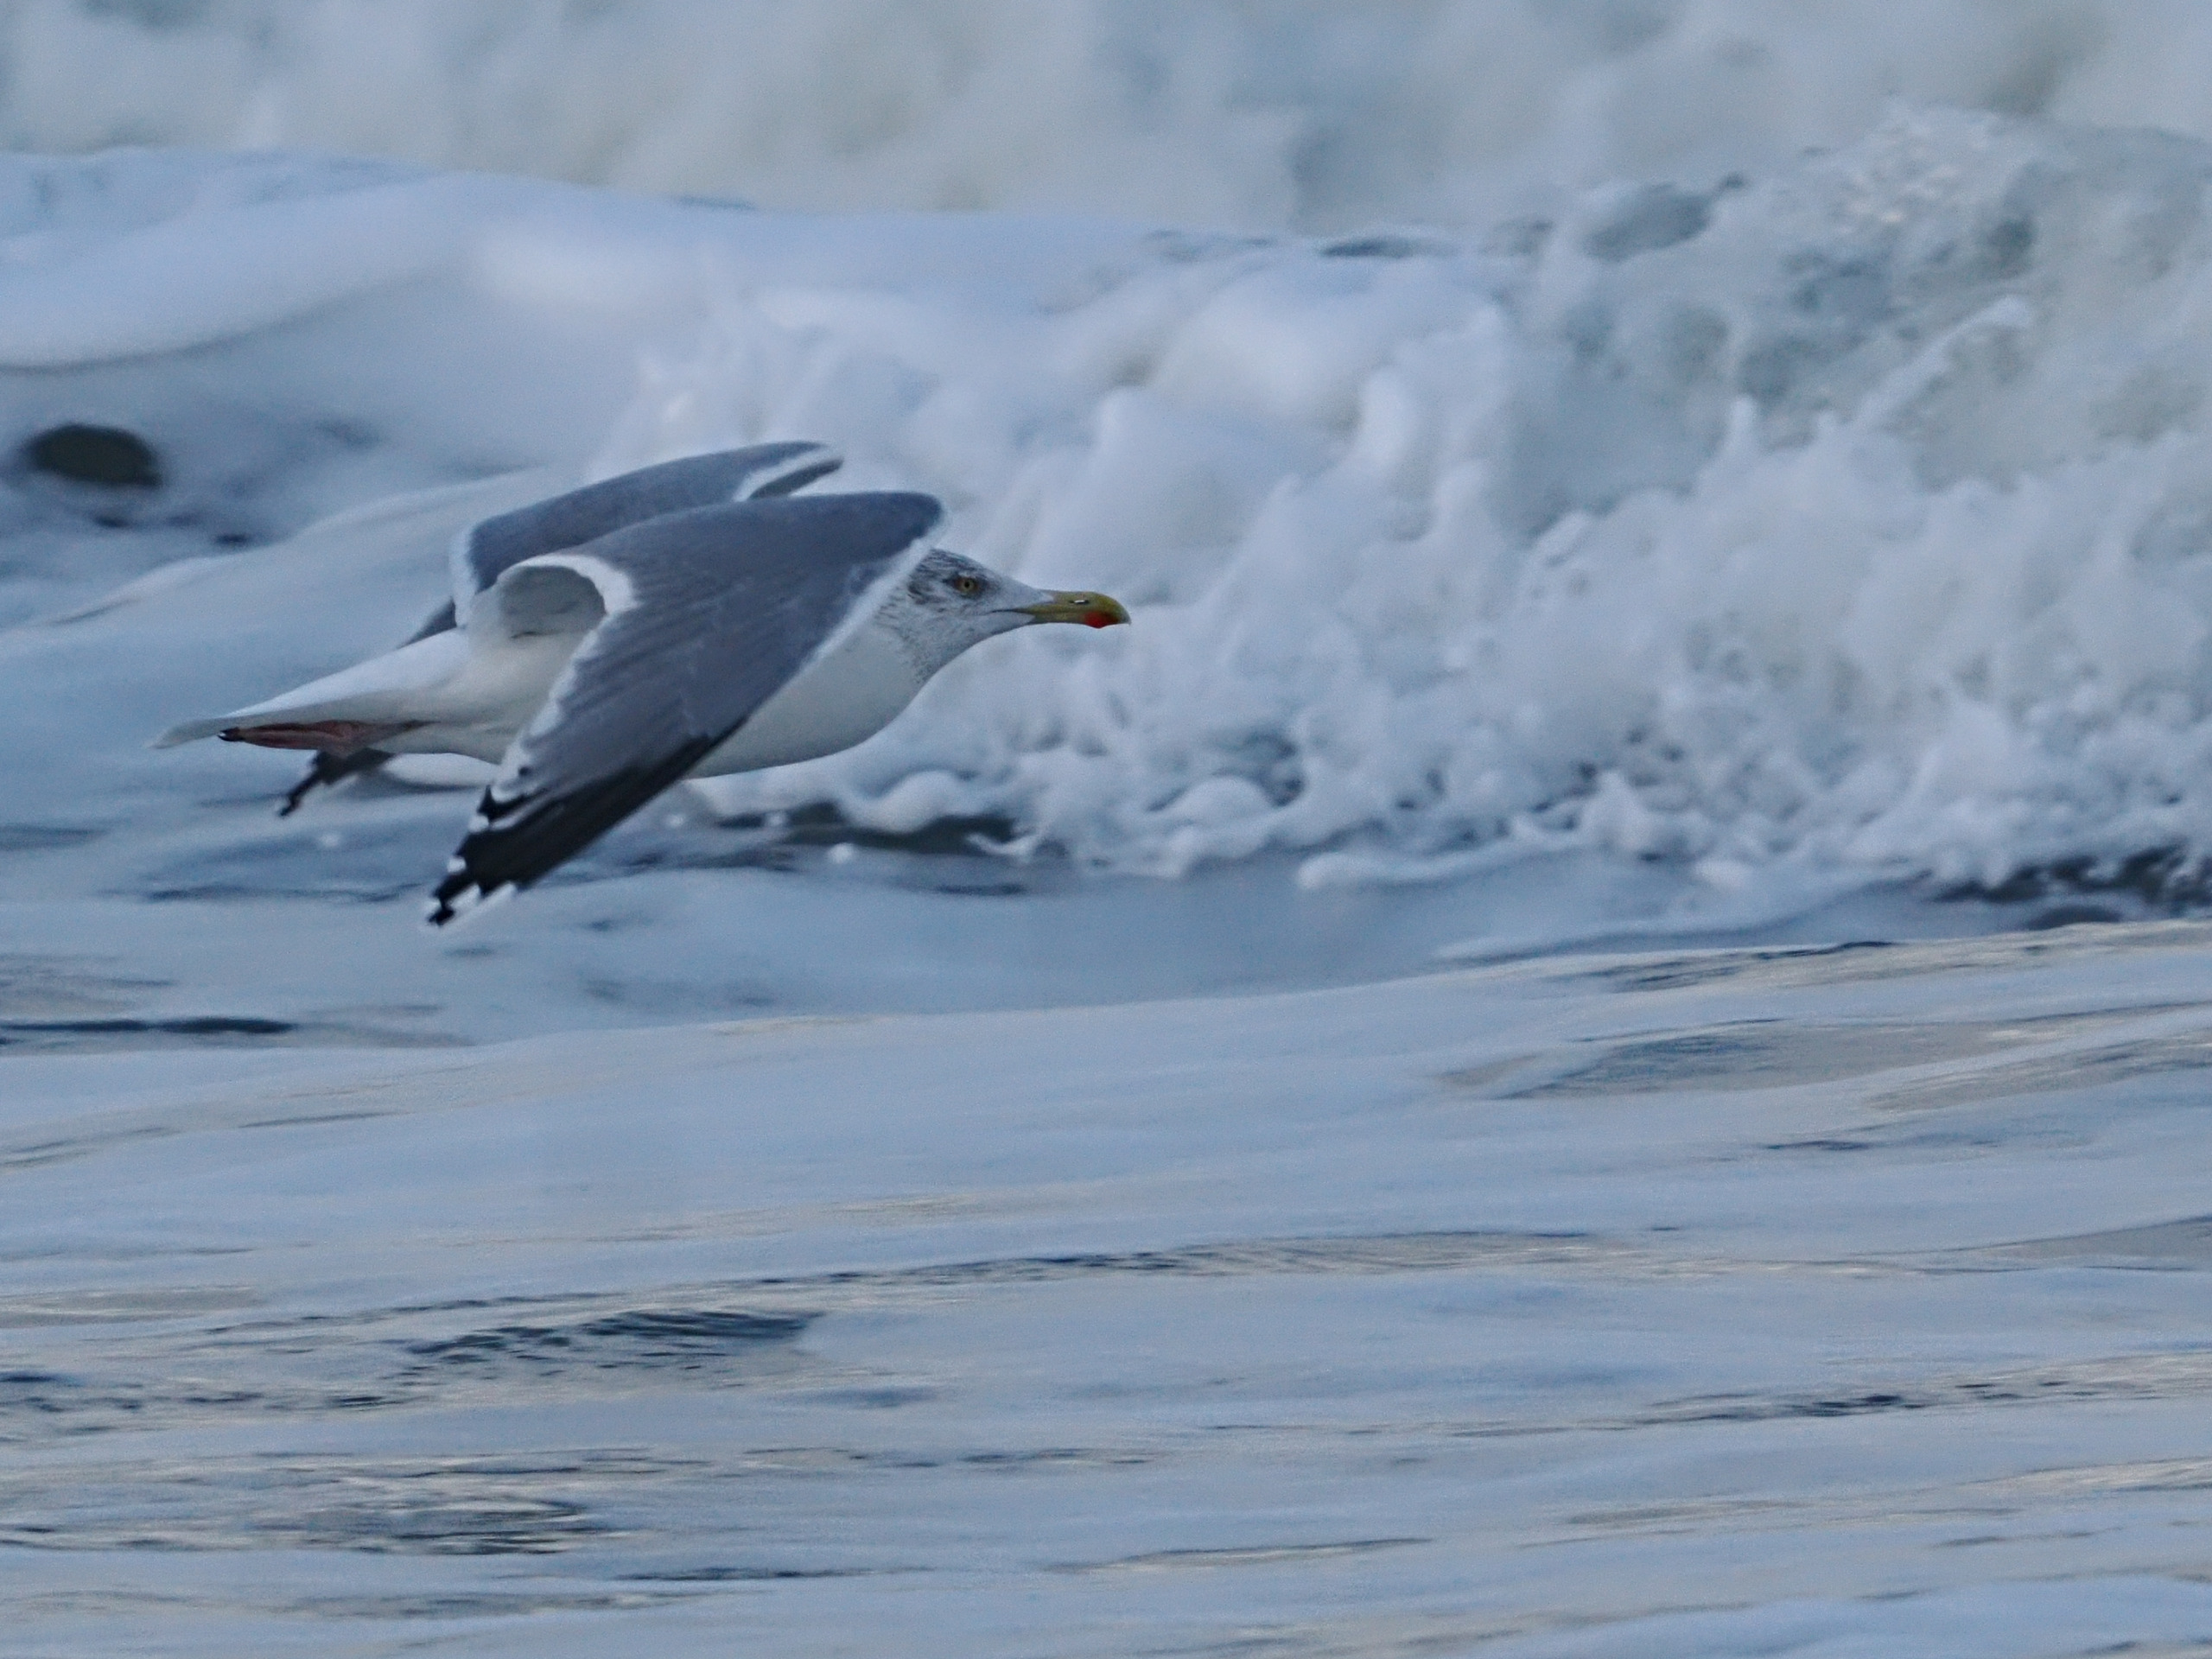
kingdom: Animalia
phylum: Chordata
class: Aves
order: Charadriiformes
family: Laridae
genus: Larus
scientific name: Larus argentatus
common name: Sølvmåge
